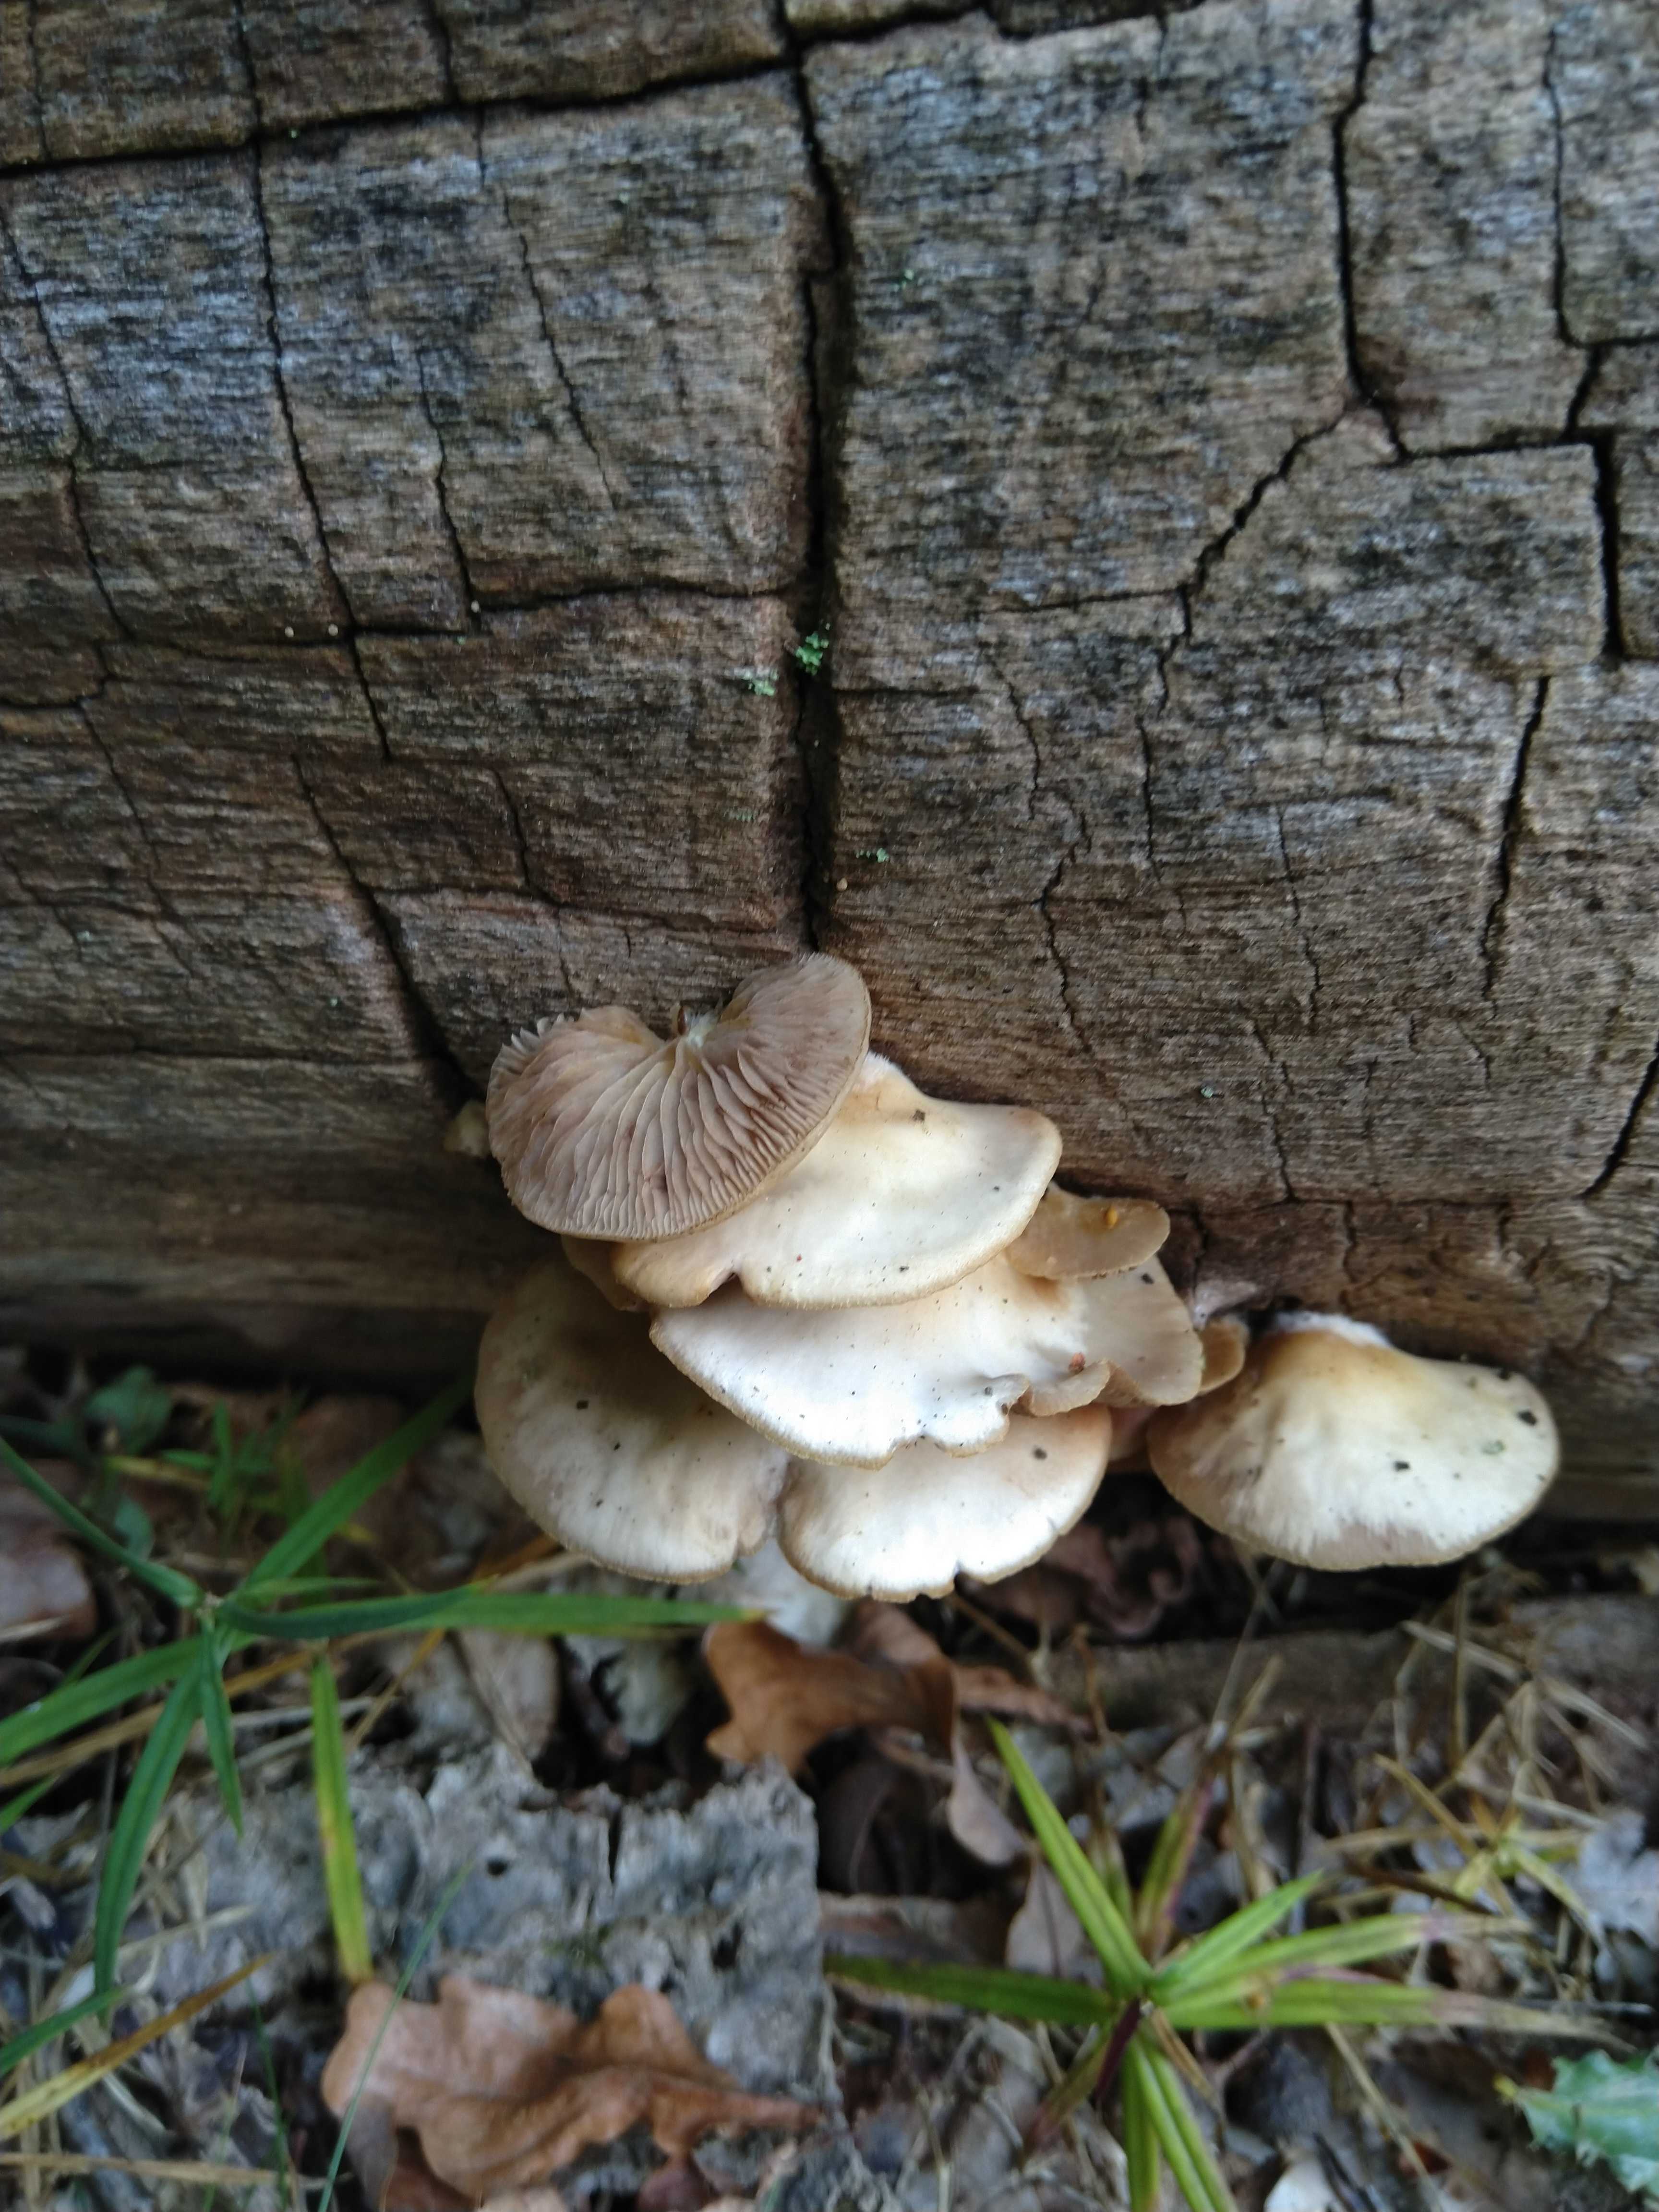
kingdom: Fungi
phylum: Basidiomycota
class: Agaricomycetes
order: Agaricales
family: Crepidotaceae
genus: Crepidotus
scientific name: Crepidotus mollis
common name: blød muslingesvamp
